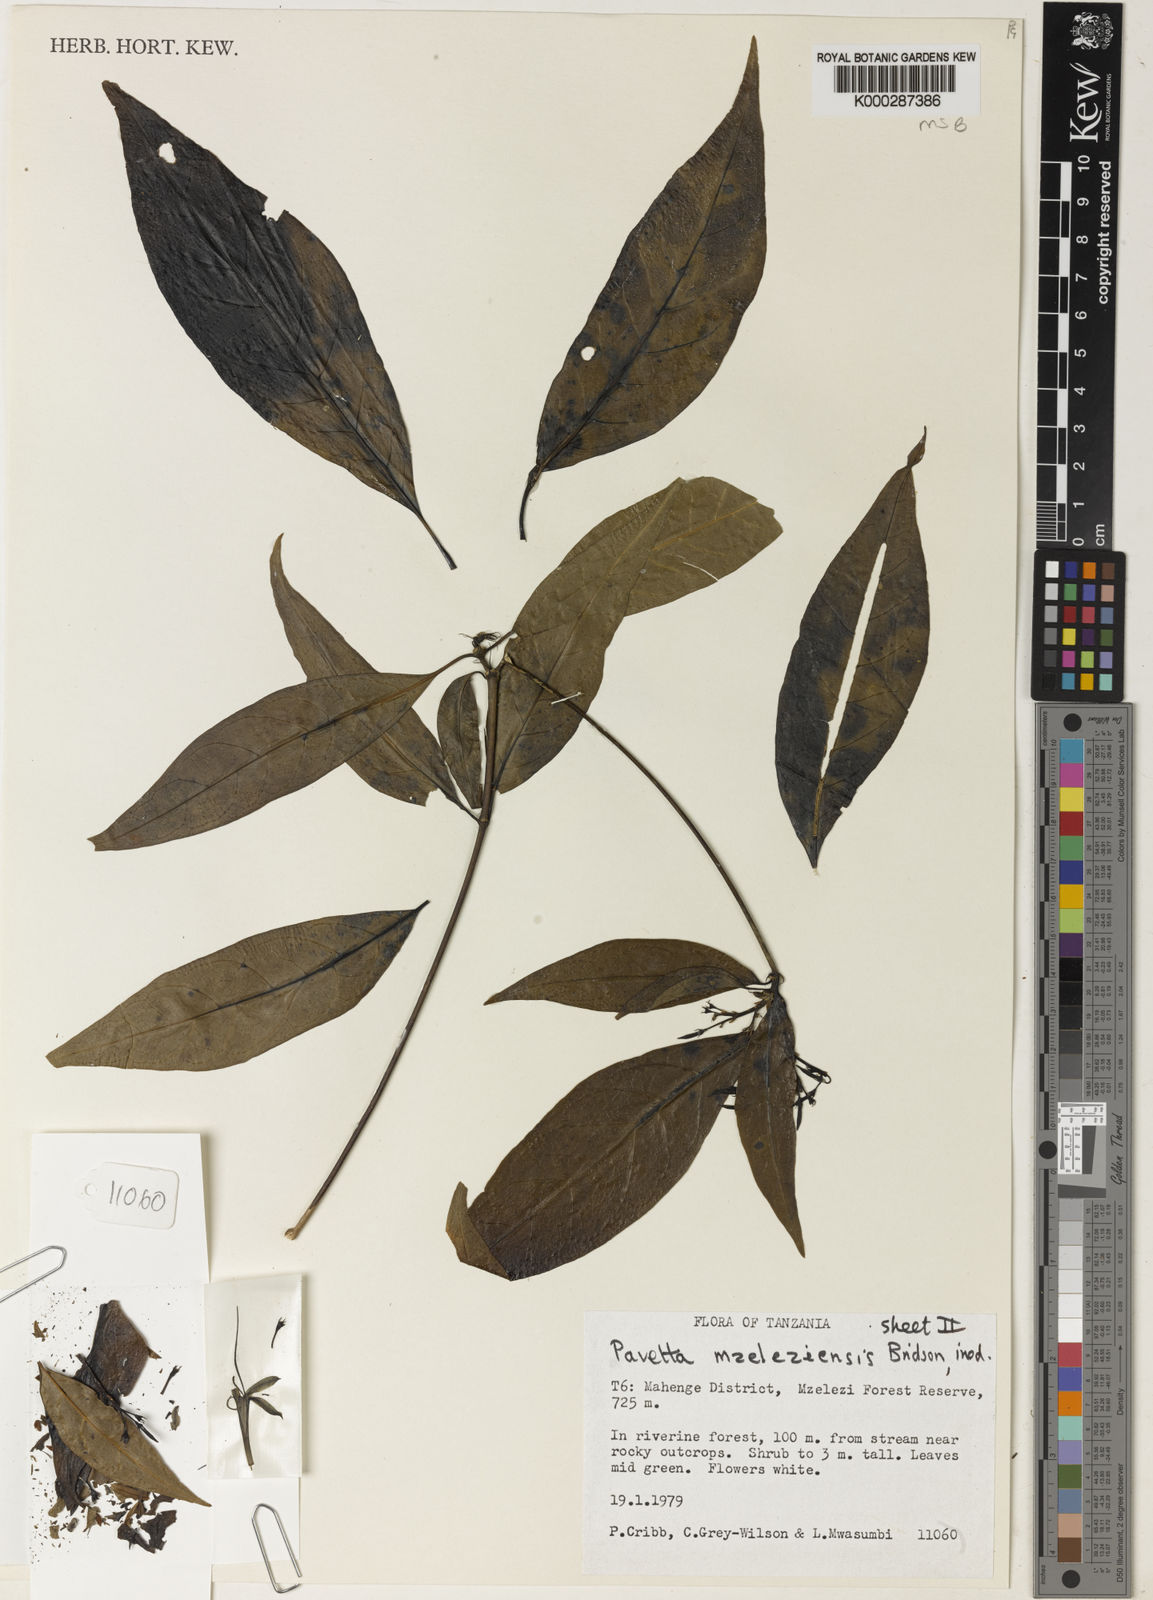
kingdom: Plantae
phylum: Tracheophyta
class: Magnoliopsida
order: Gentianales
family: Rubiaceae
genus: Pavetta
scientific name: Pavetta mzeleziensis
